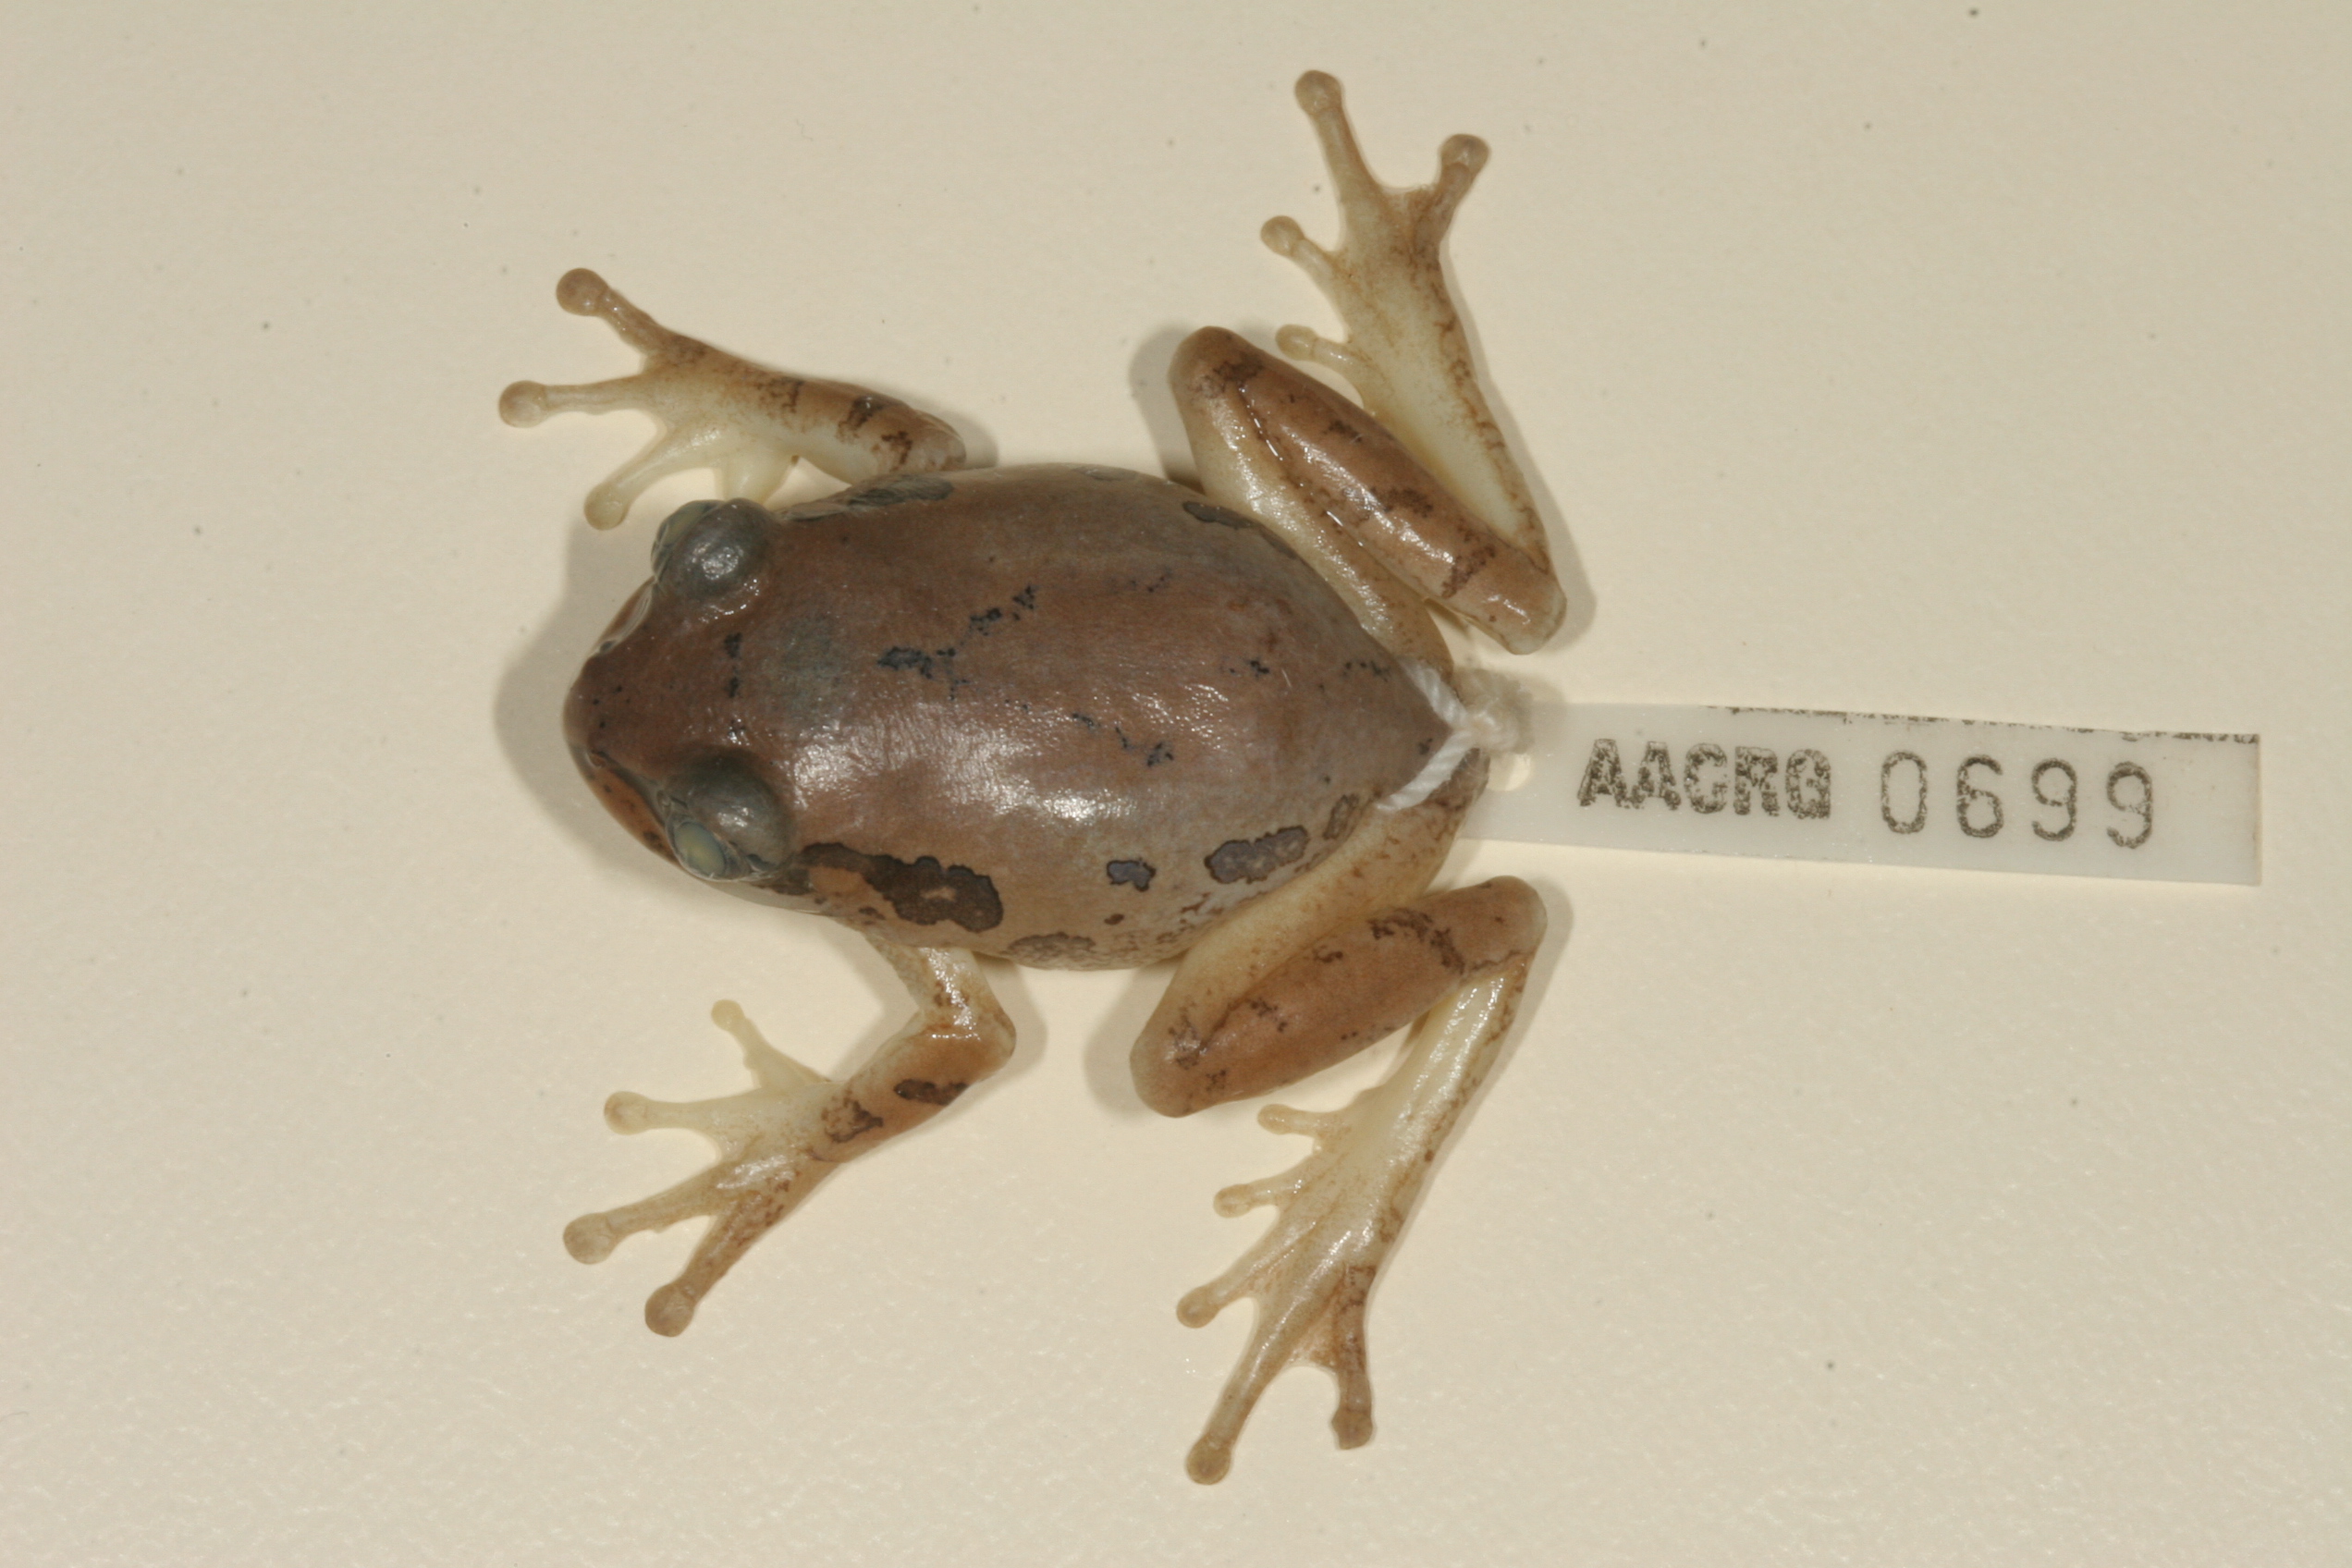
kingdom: Animalia
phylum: Chordata
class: Amphibia
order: Anura
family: Arthroleptidae
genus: Leptopelis
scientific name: Leptopelis natalensis
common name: Natal tree frog
